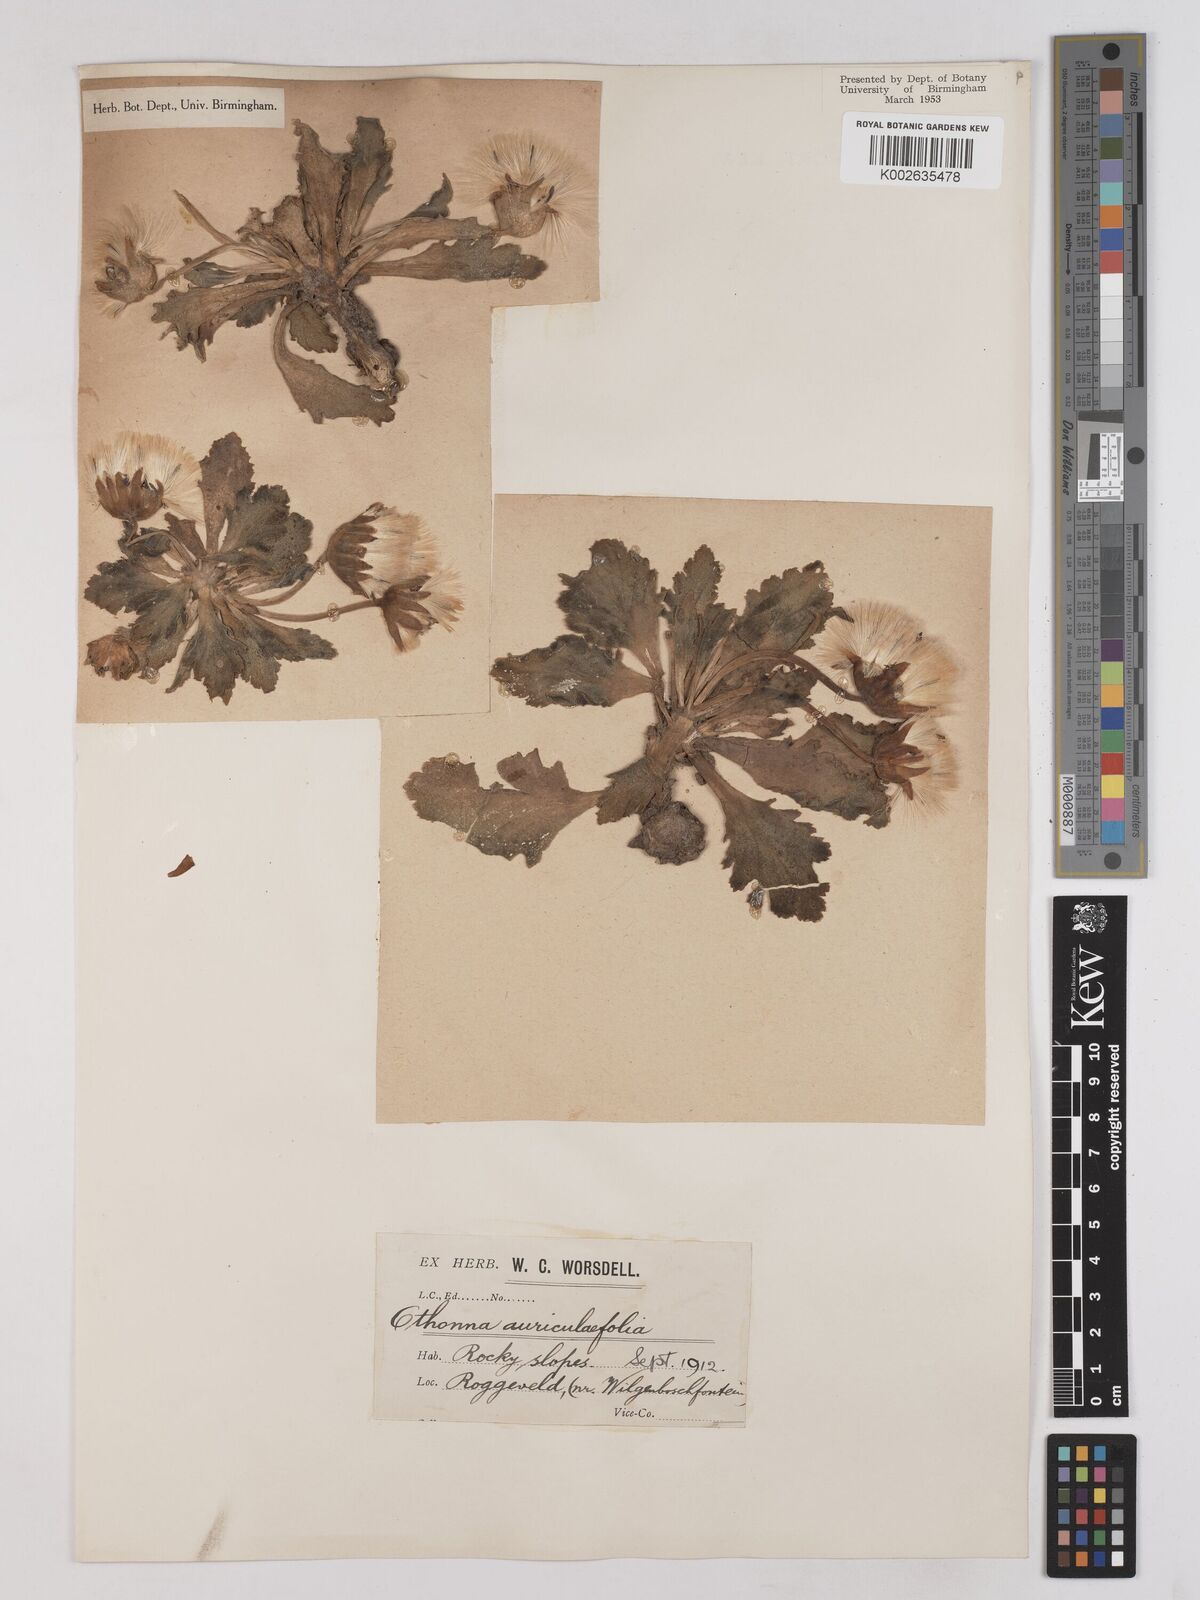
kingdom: Plantae
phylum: Tracheophyta
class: Magnoliopsida
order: Asterales
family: Asteraceae
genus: Othonna
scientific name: Othonna auriculifolia
